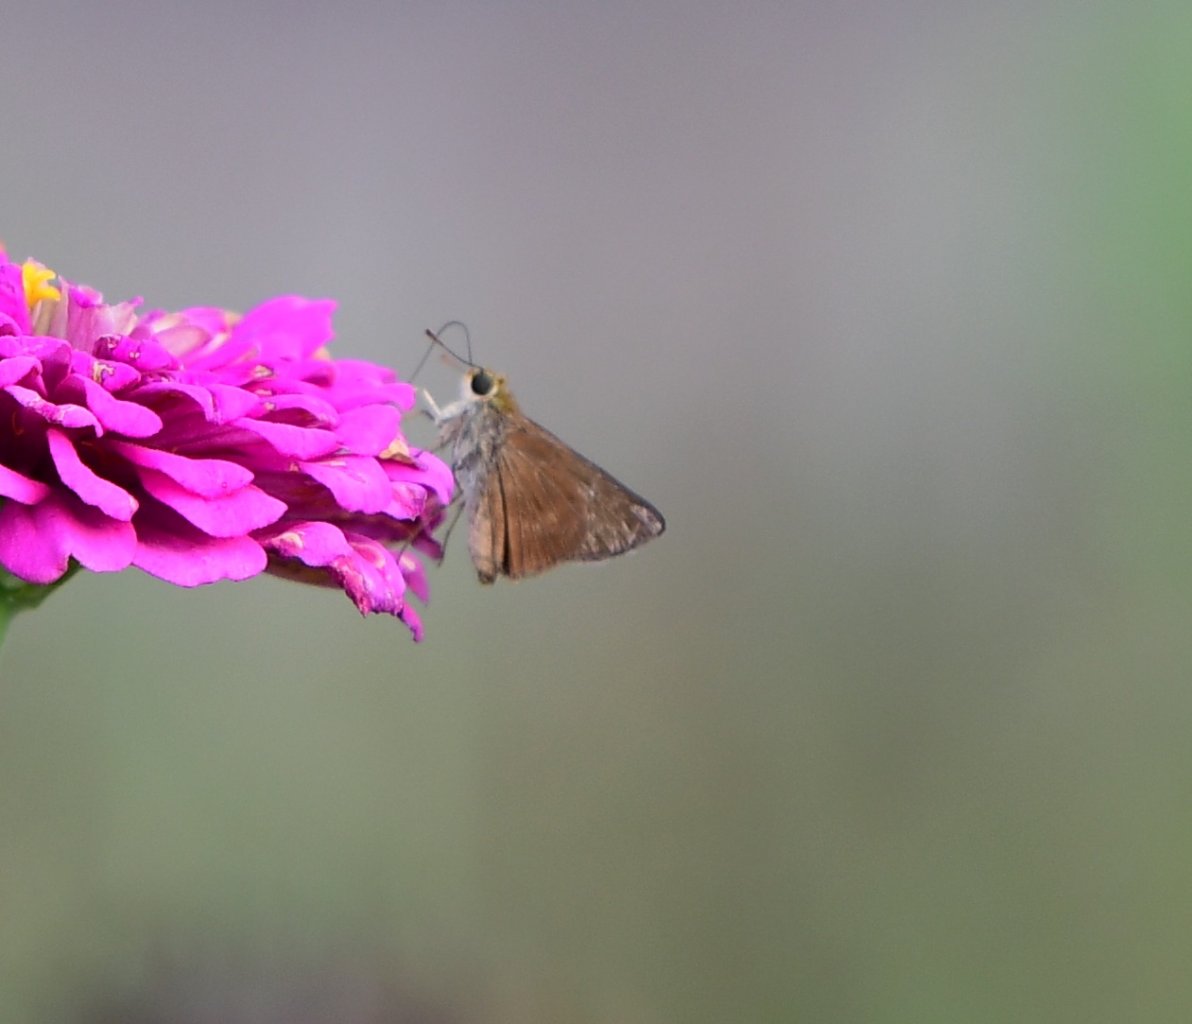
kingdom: Animalia
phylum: Arthropoda
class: Insecta
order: Lepidoptera
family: Hesperiidae
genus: Problema
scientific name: Problema byssus
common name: Byssus Skipper
